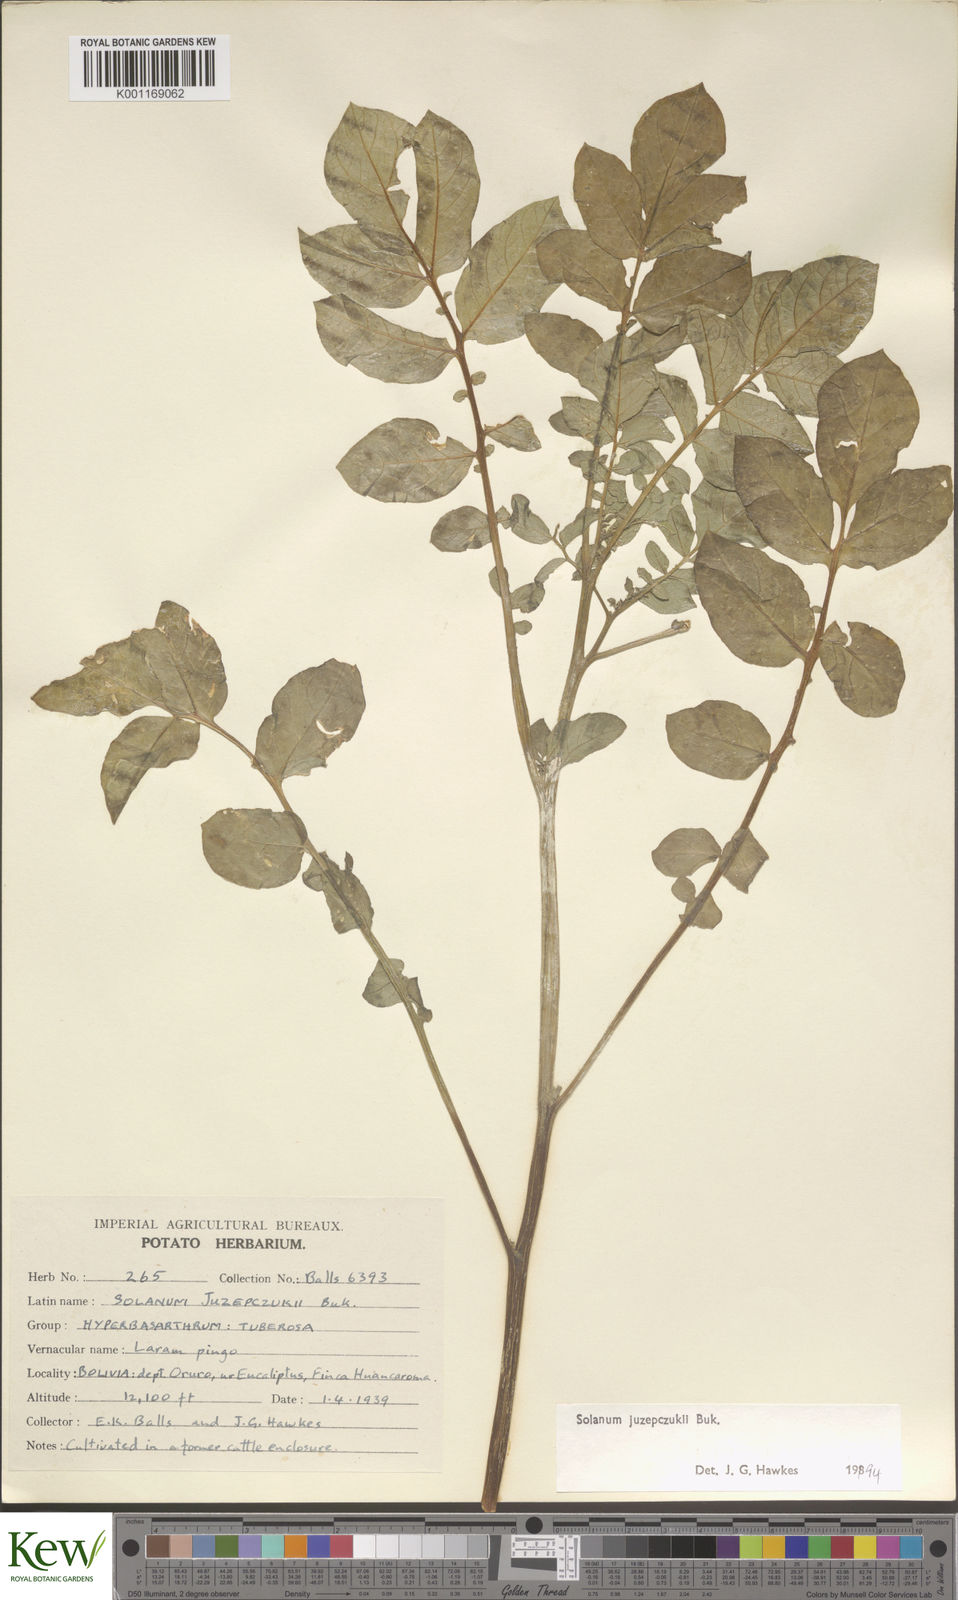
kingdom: Plantae
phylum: Tracheophyta
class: Magnoliopsida
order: Solanales
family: Solanaceae
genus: Solanum
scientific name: Solanum juzepczukii
